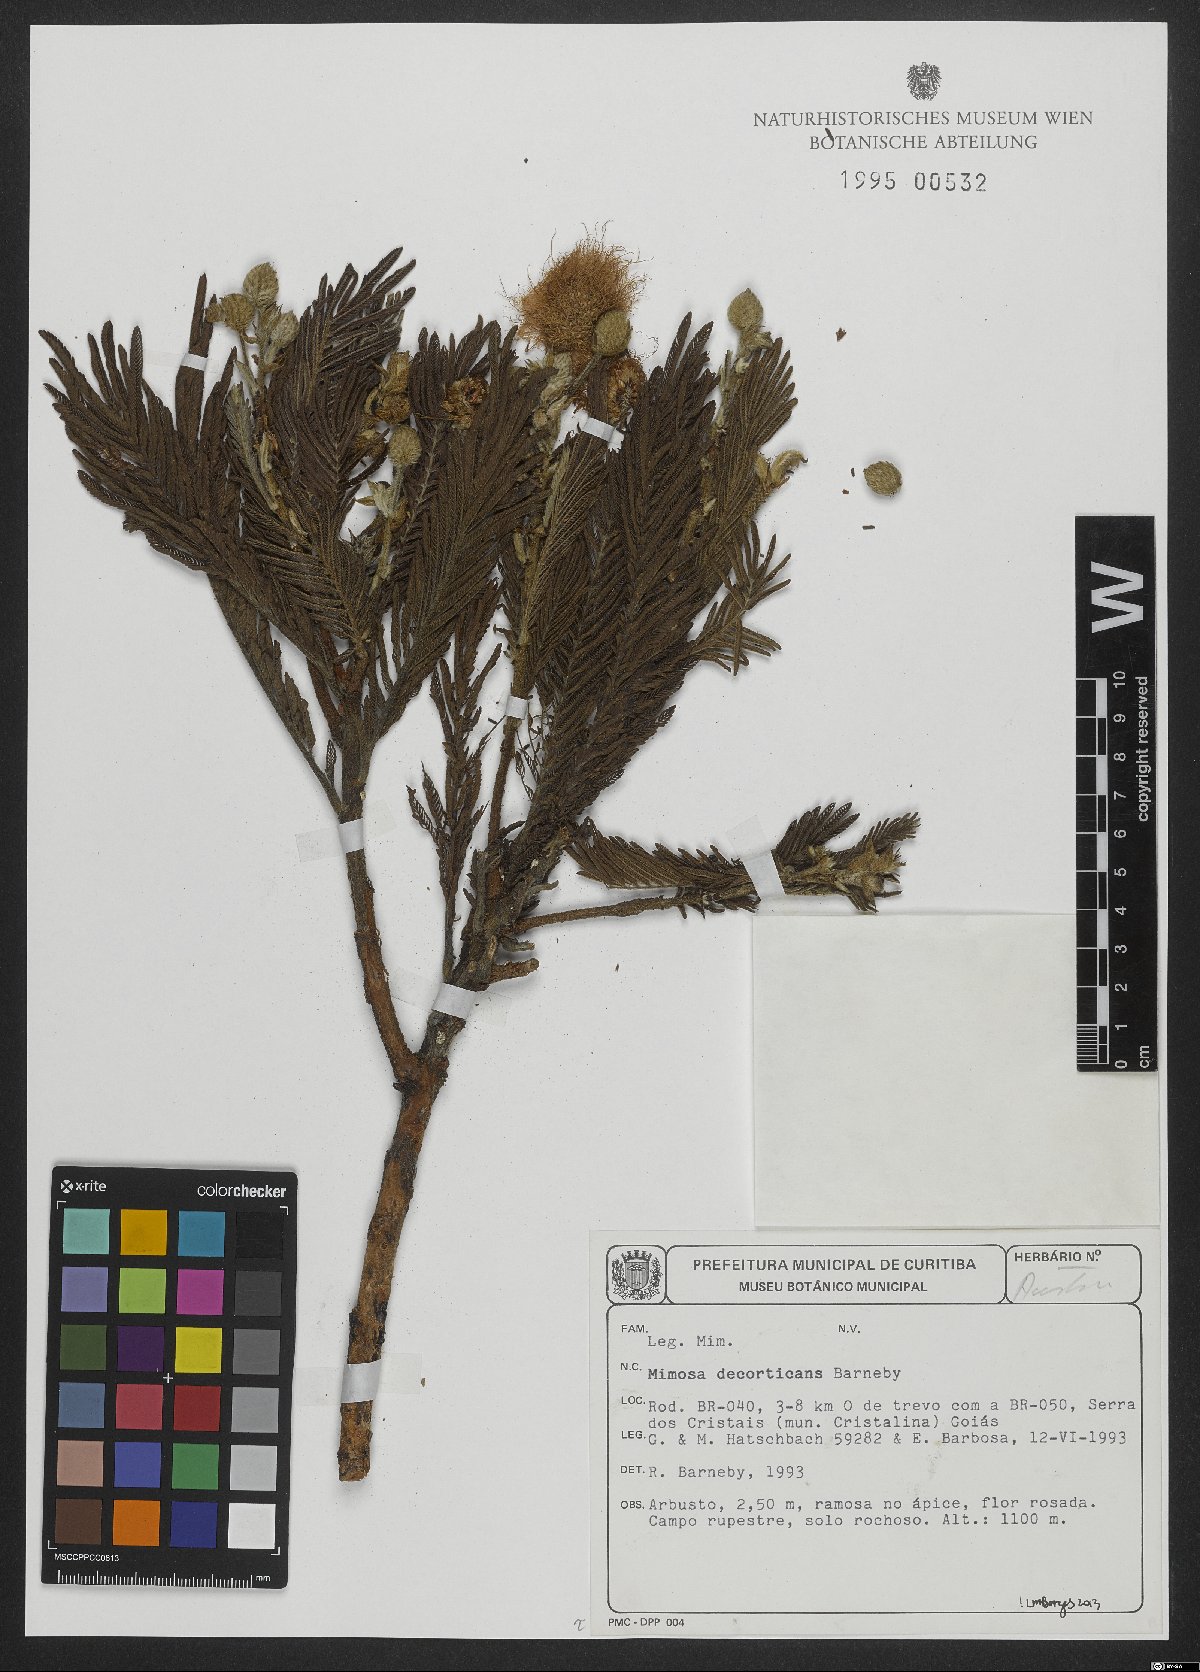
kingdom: Plantae
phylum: Tracheophyta
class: Magnoliopsida
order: Fabales
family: Fabaceae
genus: Mimosa
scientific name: Mimosa decorticans
